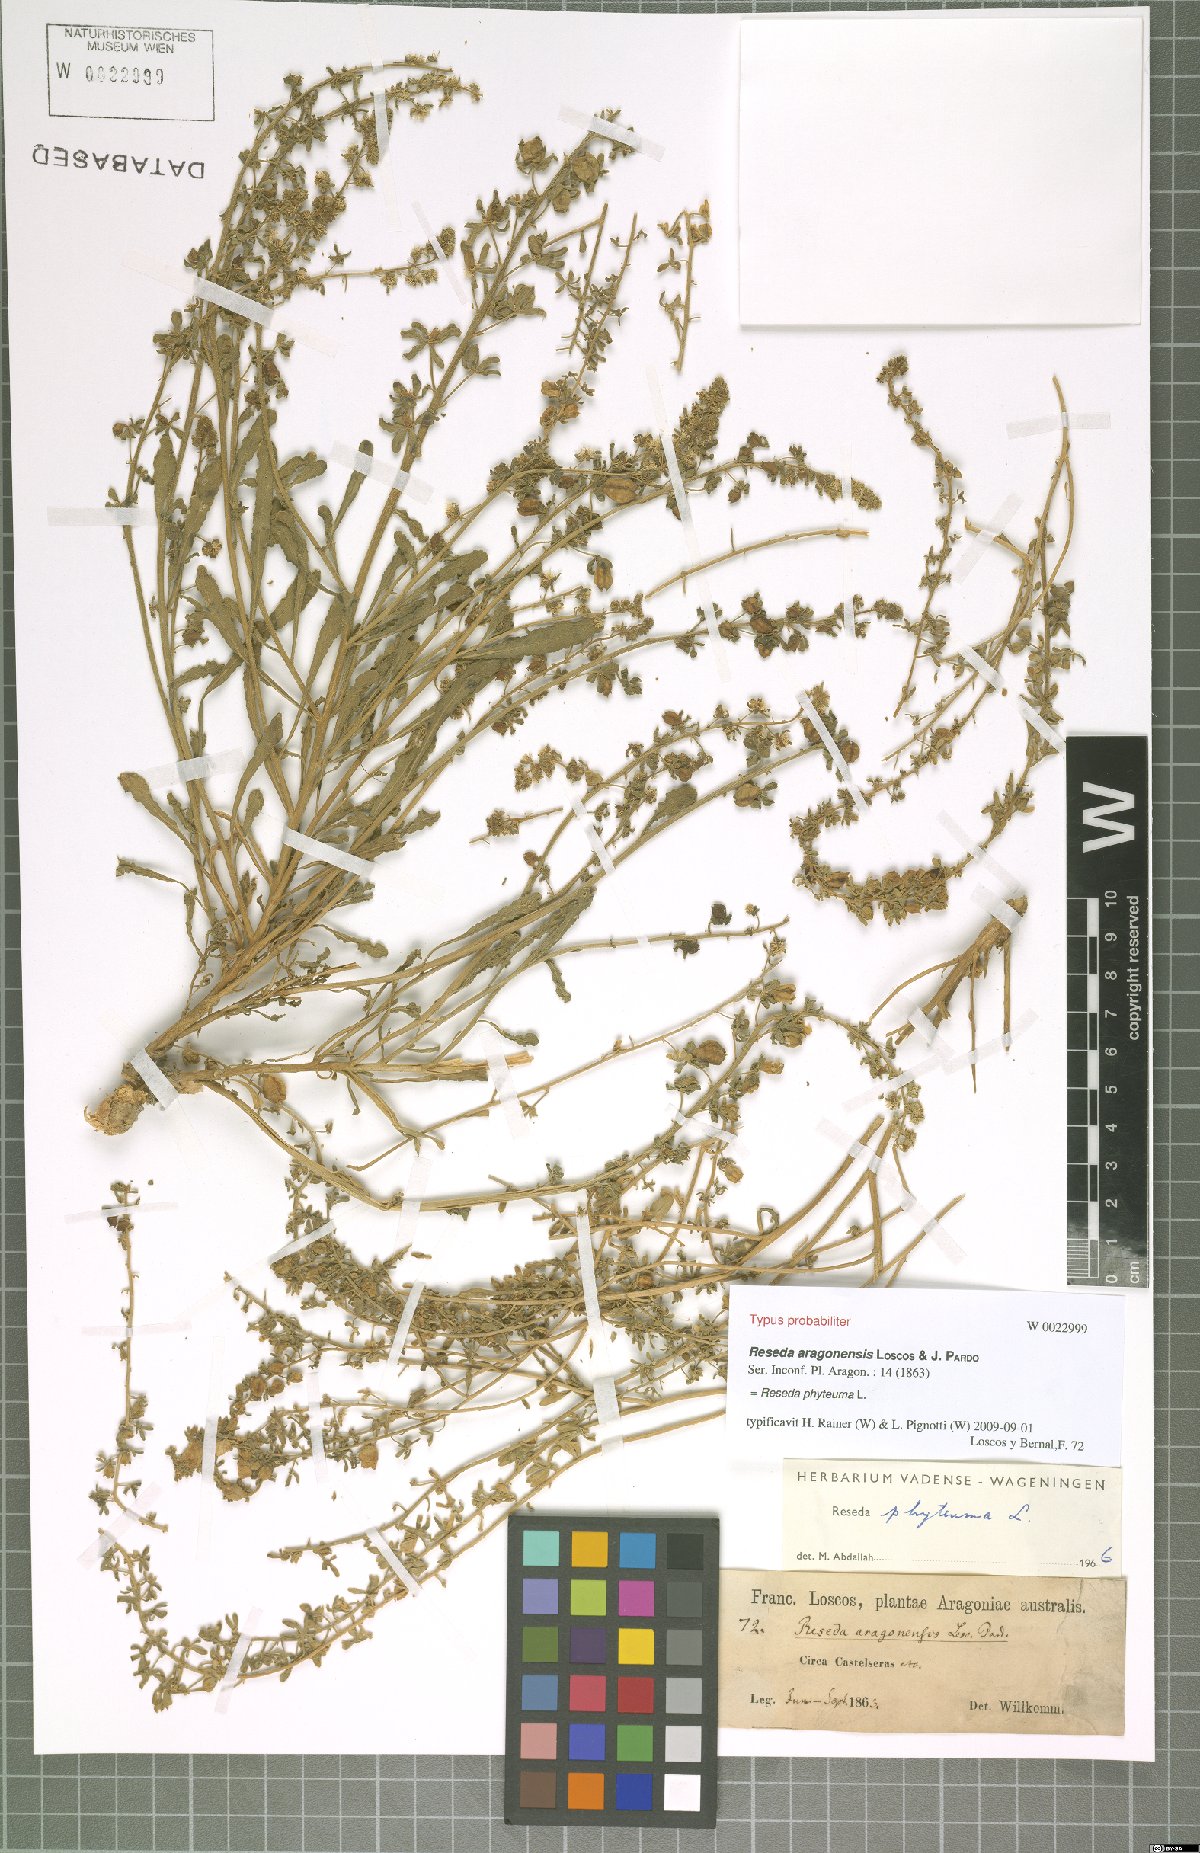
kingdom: Plantae
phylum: Tracheophyta
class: Magnoliopsida
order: Brassicales
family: Resedaceae
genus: Reseda
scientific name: Reseda phyteuma
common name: Corn mignonette
